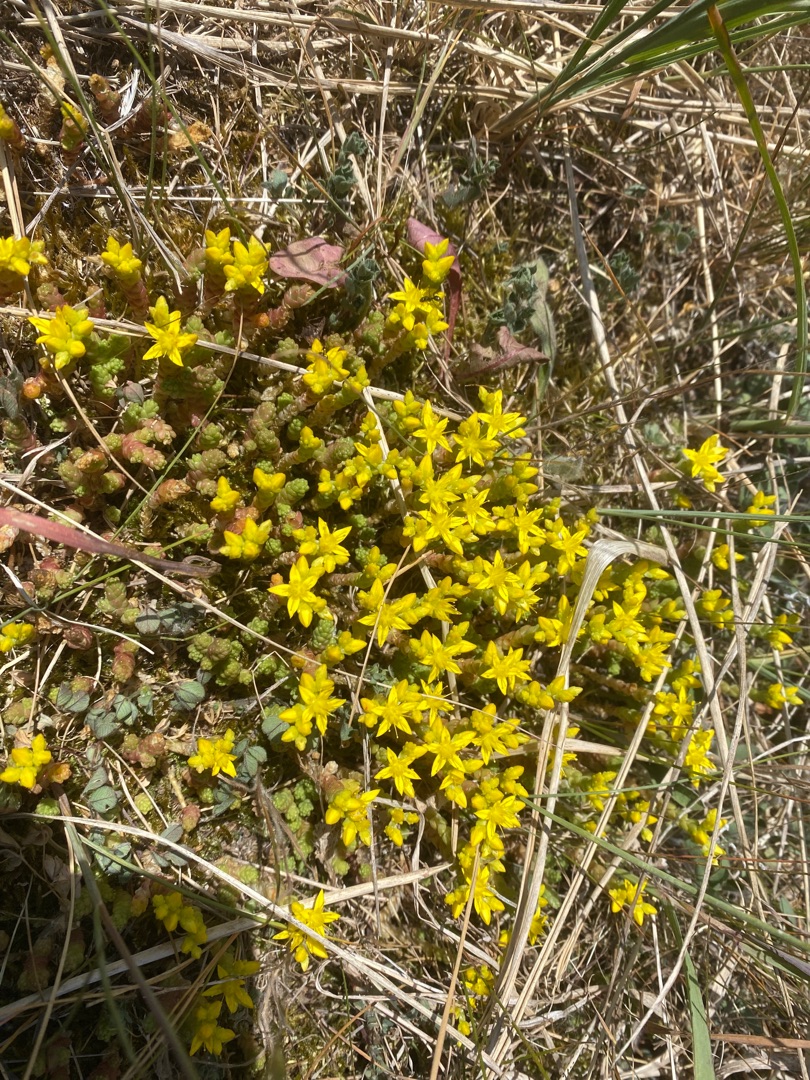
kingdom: Plantae
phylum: Tracheophyta
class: Magnoliopsida
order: Saxifragales
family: Crassulaceae
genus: Sedum
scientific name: Sedum acre
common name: Bidende stenurt
